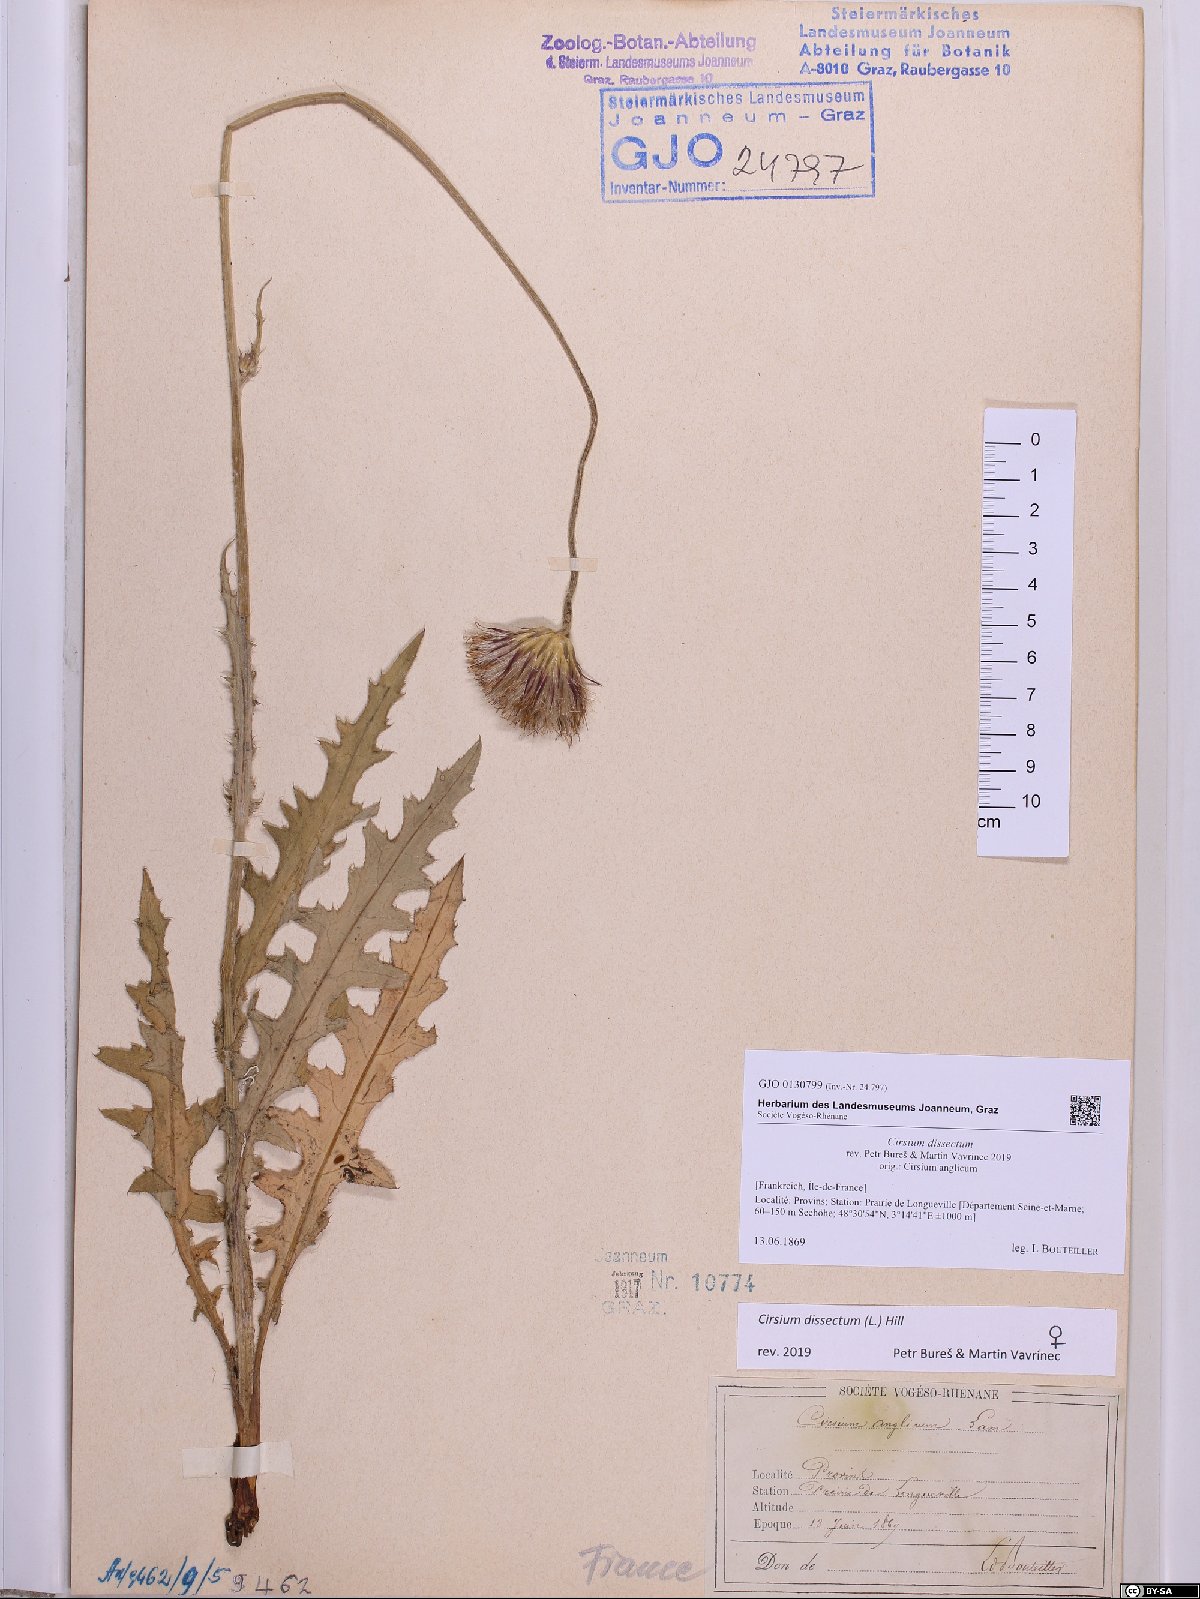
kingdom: Plantae
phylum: Tracheophyta
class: Magnoliopsida
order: Asterales
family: Asteraceae
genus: Cirsium
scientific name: Cirsium dissectum
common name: Meadow thistle
